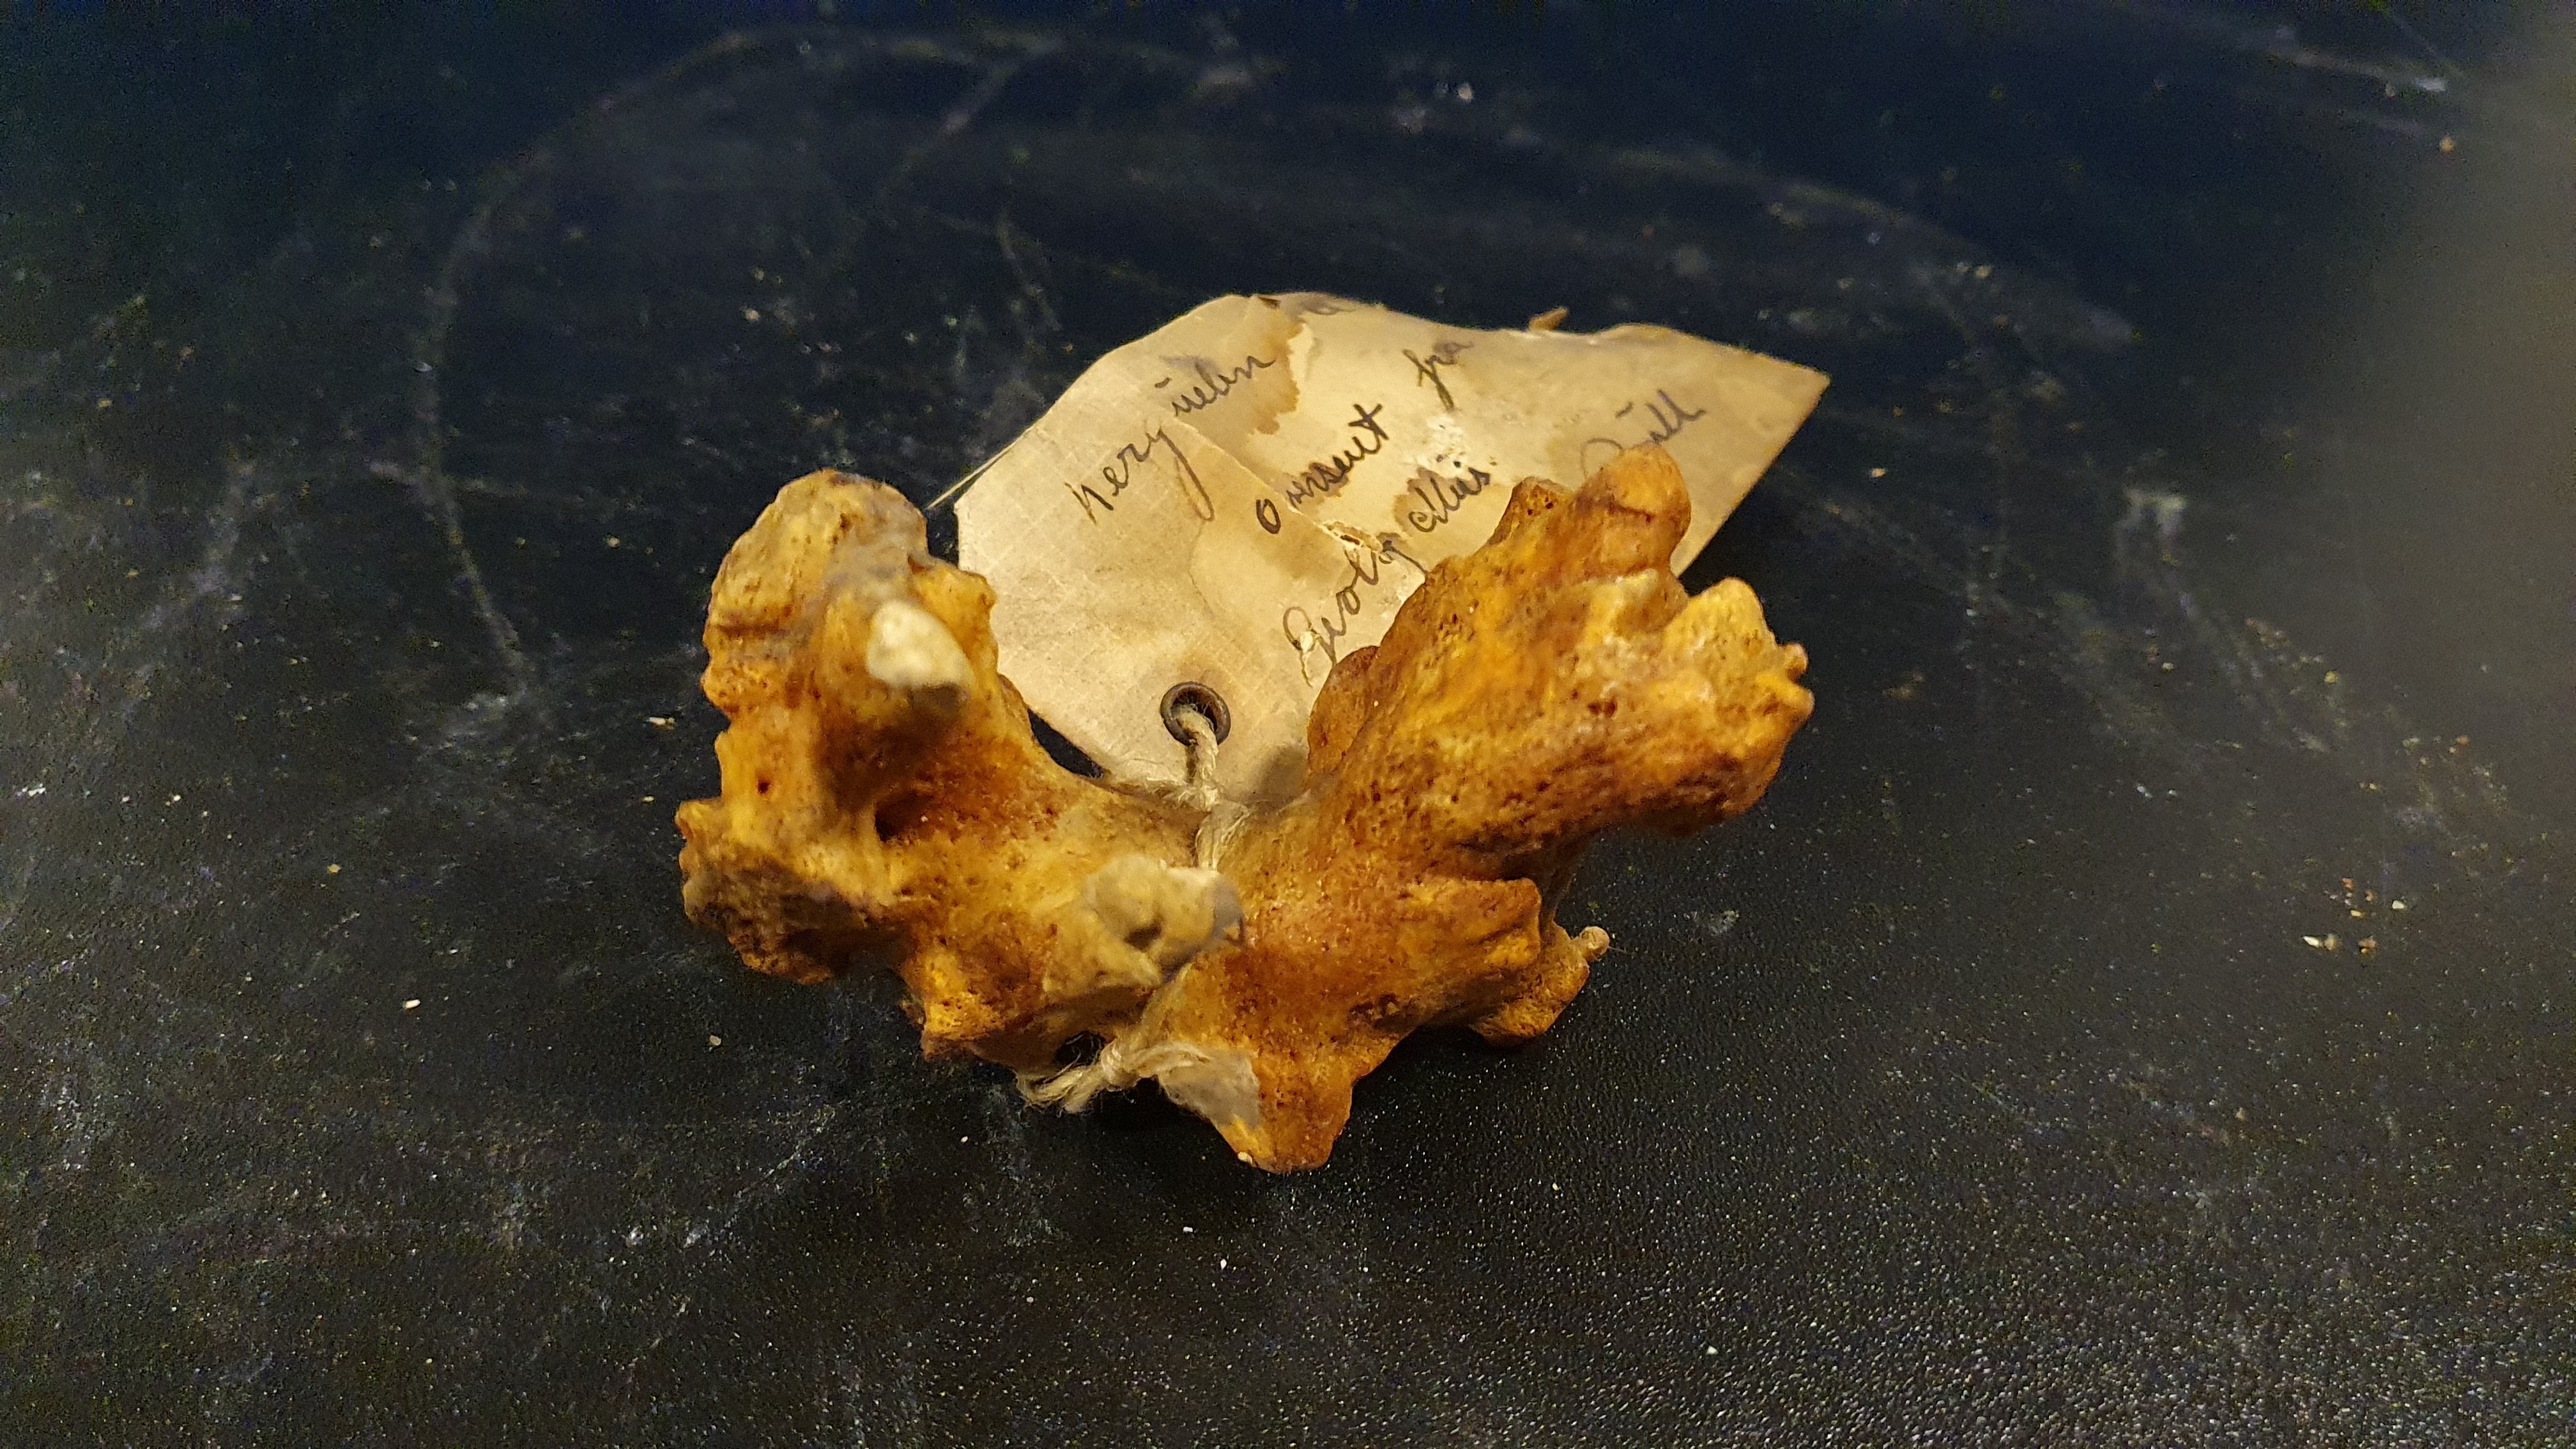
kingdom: Animalia
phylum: Chordata
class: Mammalia
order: Cetacea
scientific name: Cetacea
